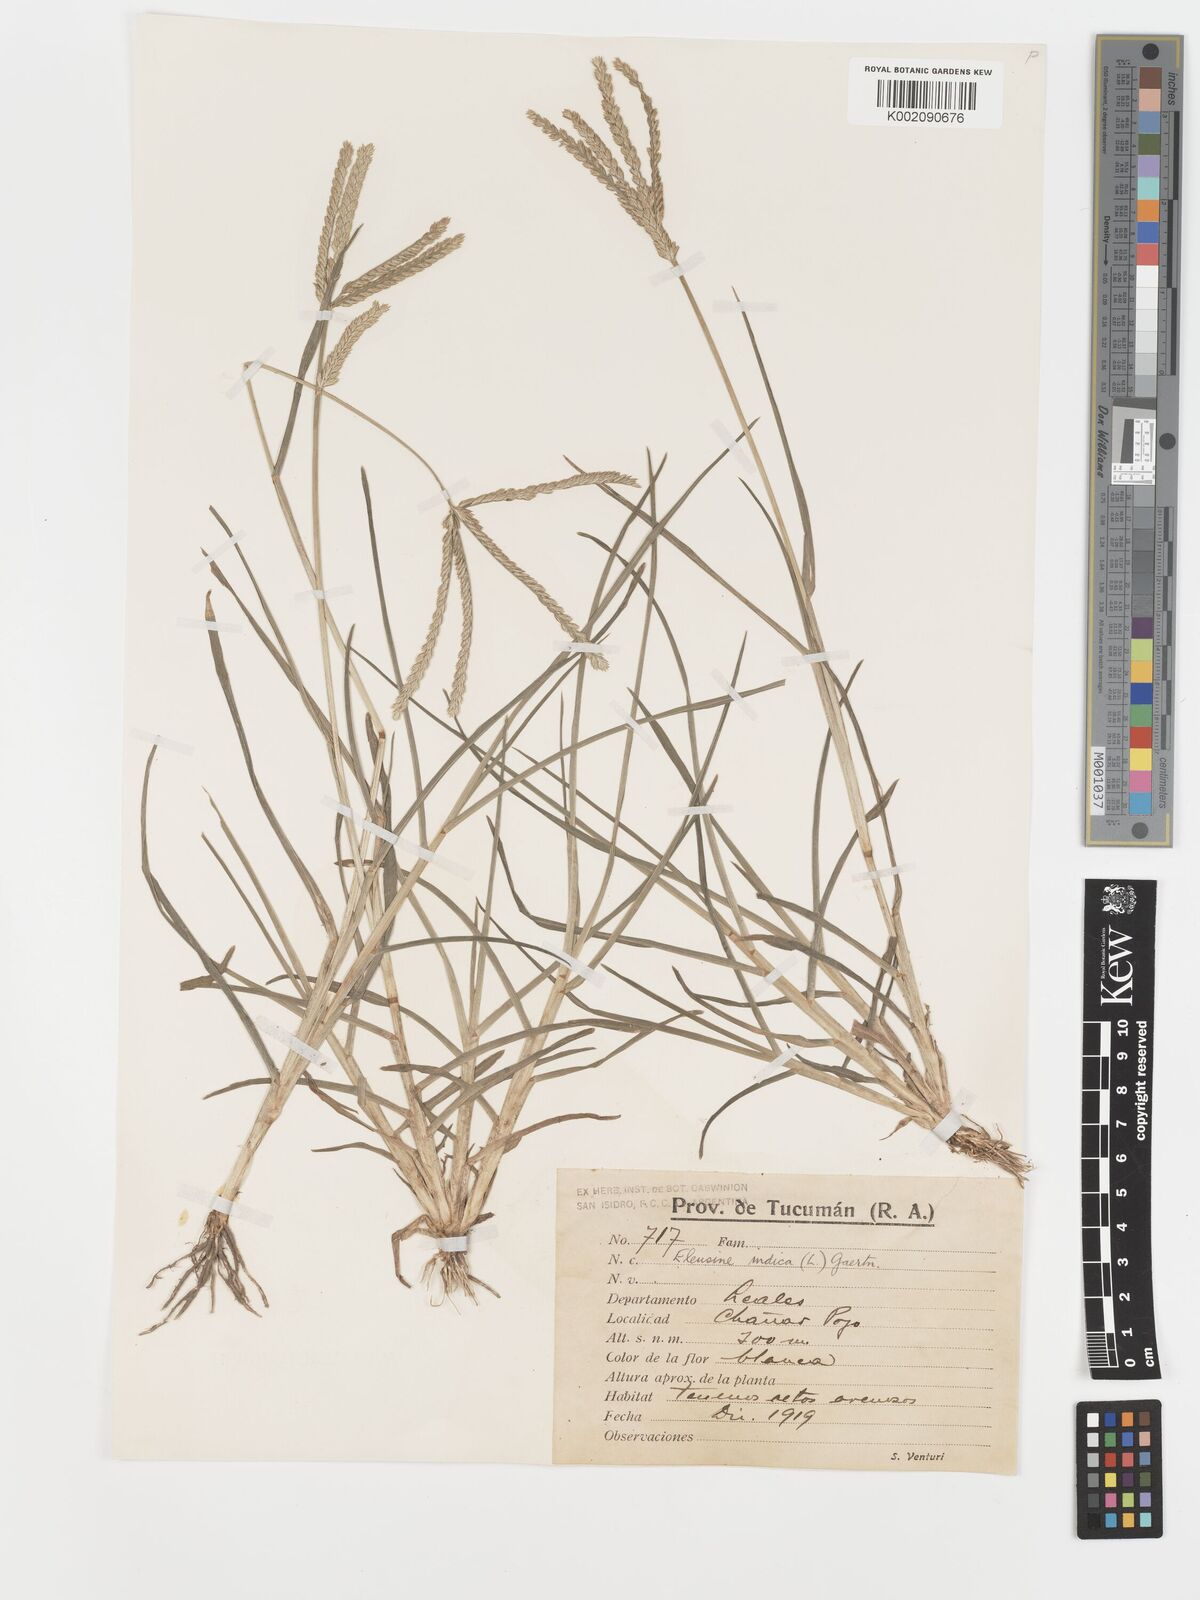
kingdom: Plantae
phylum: Tracheophyta
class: Liliopsida
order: Poales
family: Poaceae
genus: Eleusine
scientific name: Eleusine indica
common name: Yard-grass
